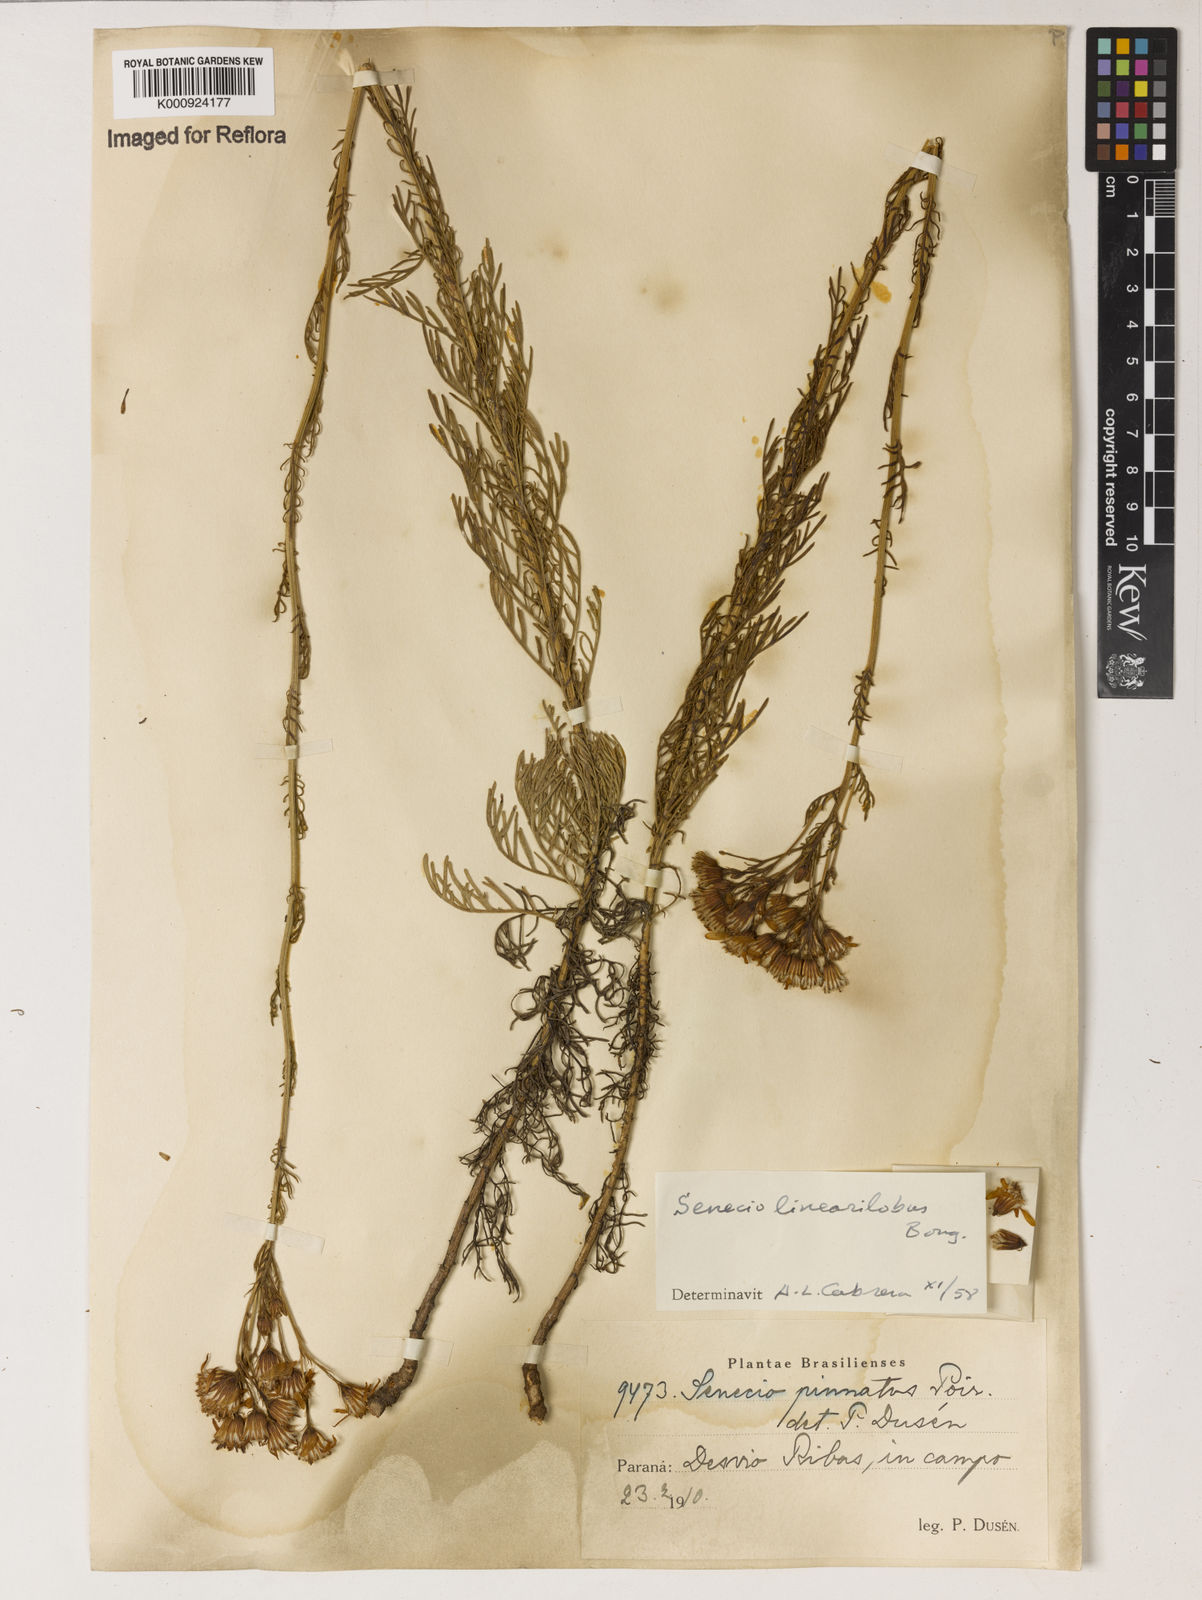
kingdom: Plantae
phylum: Tracheophyta
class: Magnoliopsida
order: Asterales
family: Asteraceae
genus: Senecio
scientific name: Senecio linearilobus
